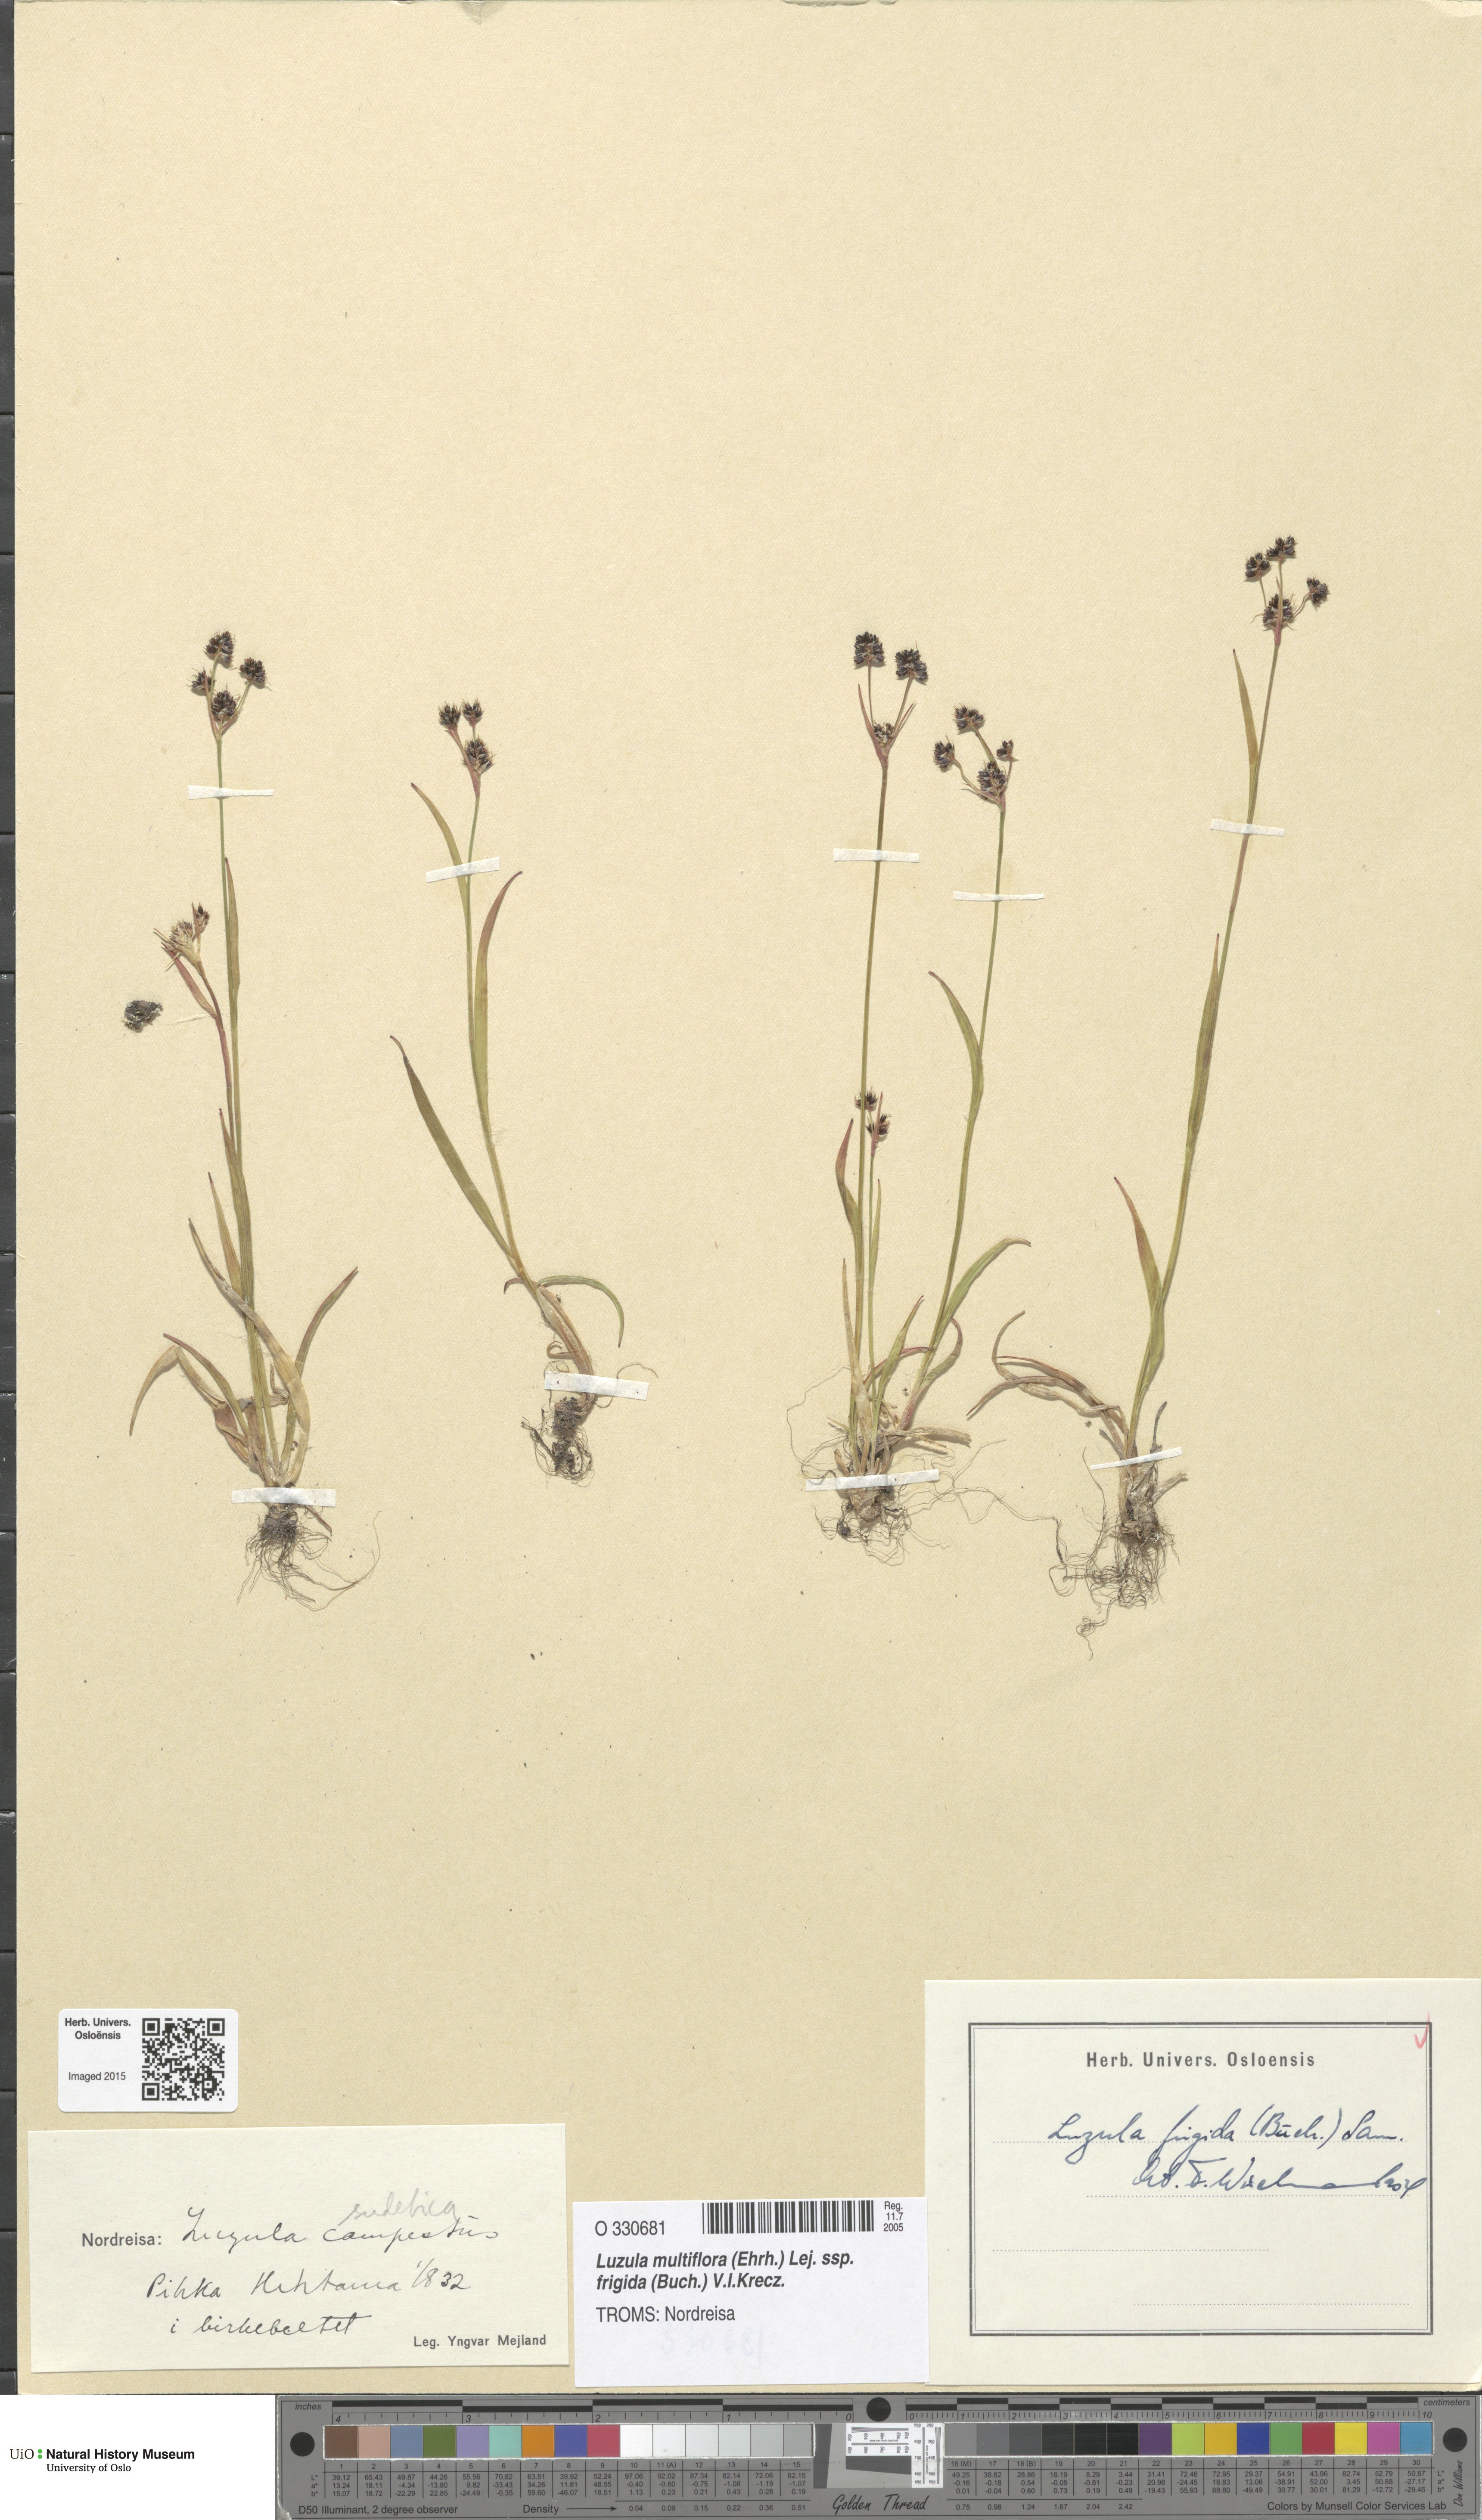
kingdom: Plantae
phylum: Tracheophyta
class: Liliopsida
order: Poales
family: Juncaceae
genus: Luzula
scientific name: Luzula multiflora
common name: Heath wood-rush
